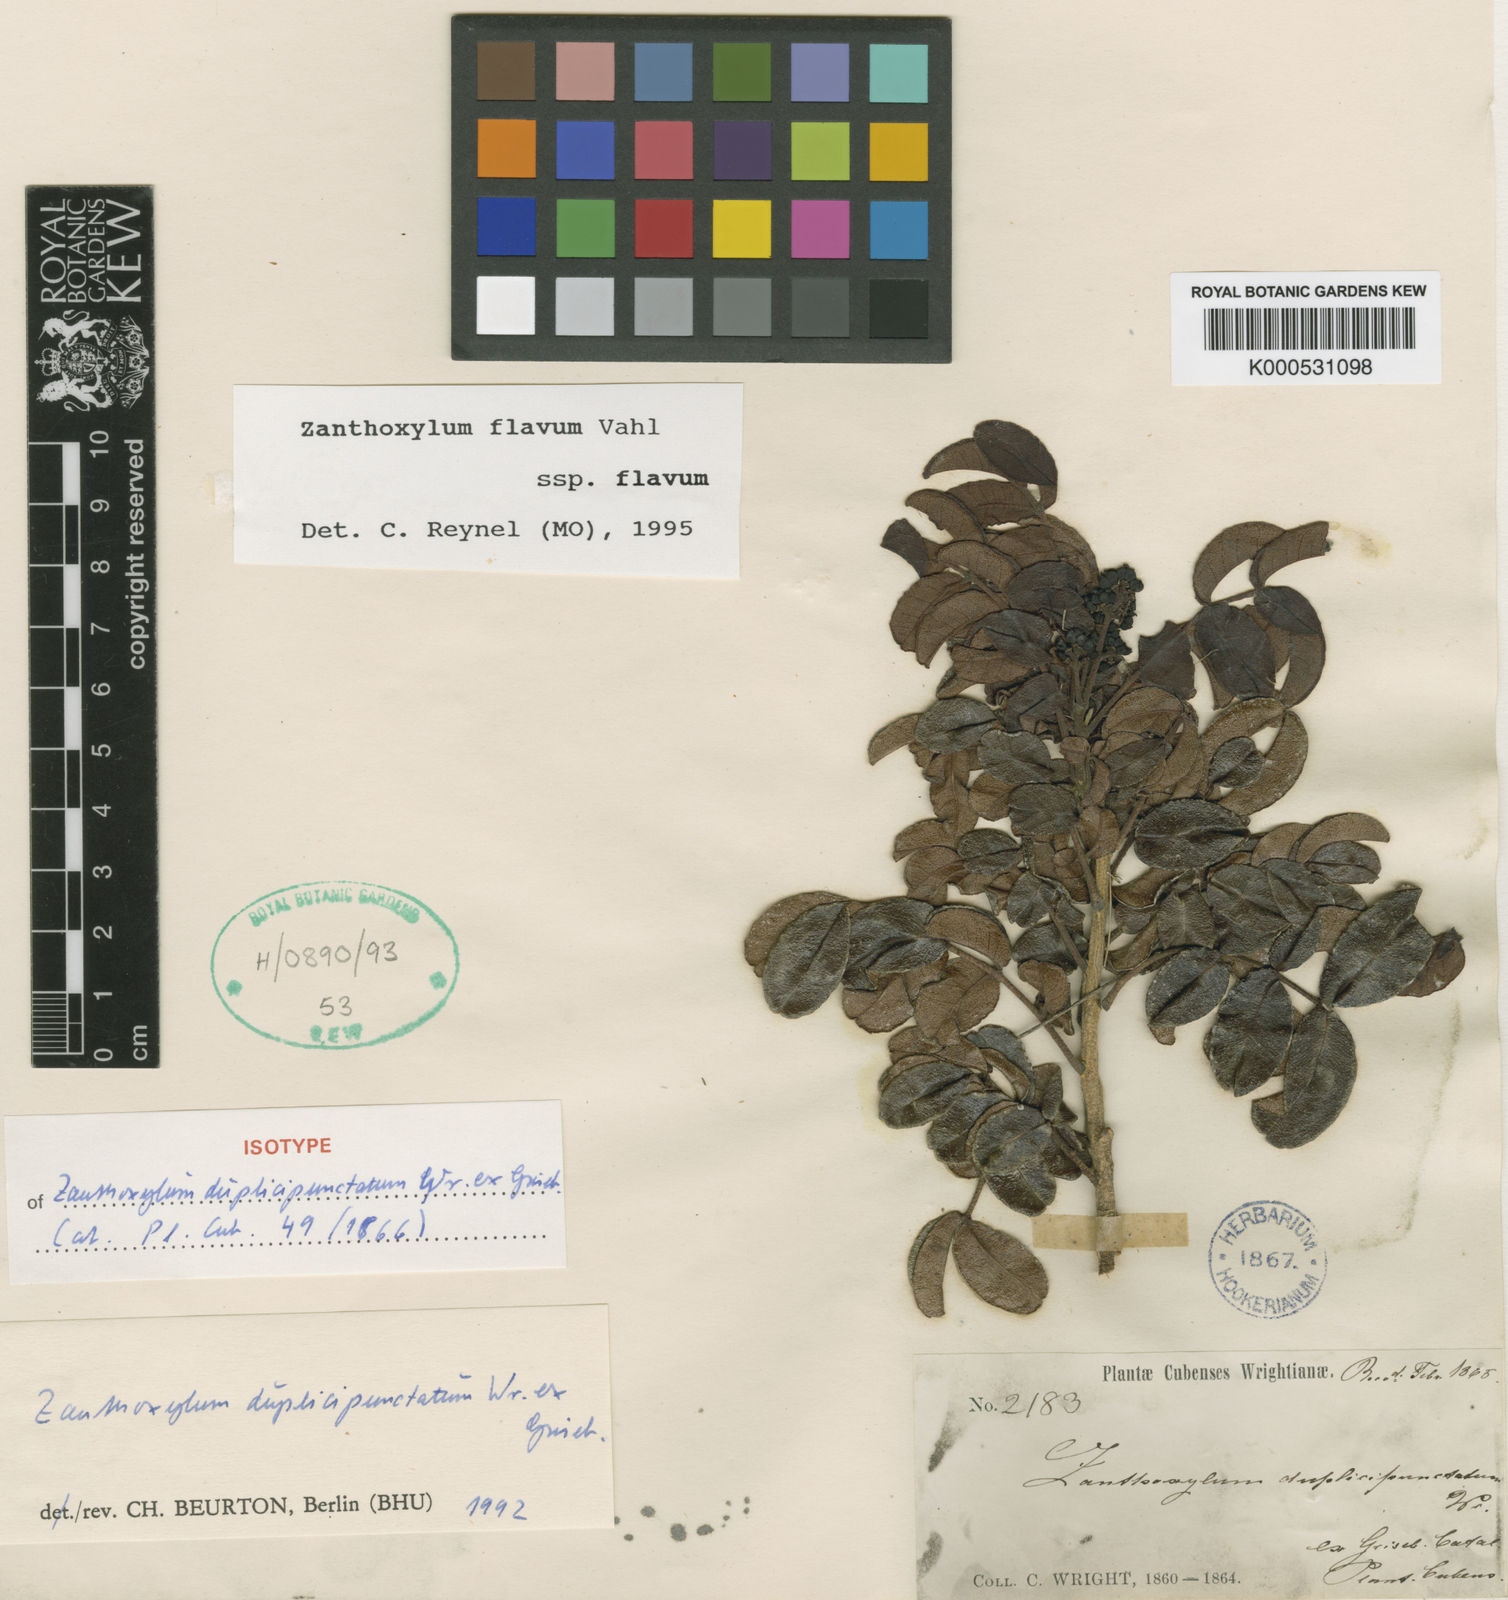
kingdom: Plantae
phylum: Tracheophyta
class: Magnoliopsida
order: Sapindales
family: Rutaceae
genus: Zanthoxylum
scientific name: Zanthoxylum
